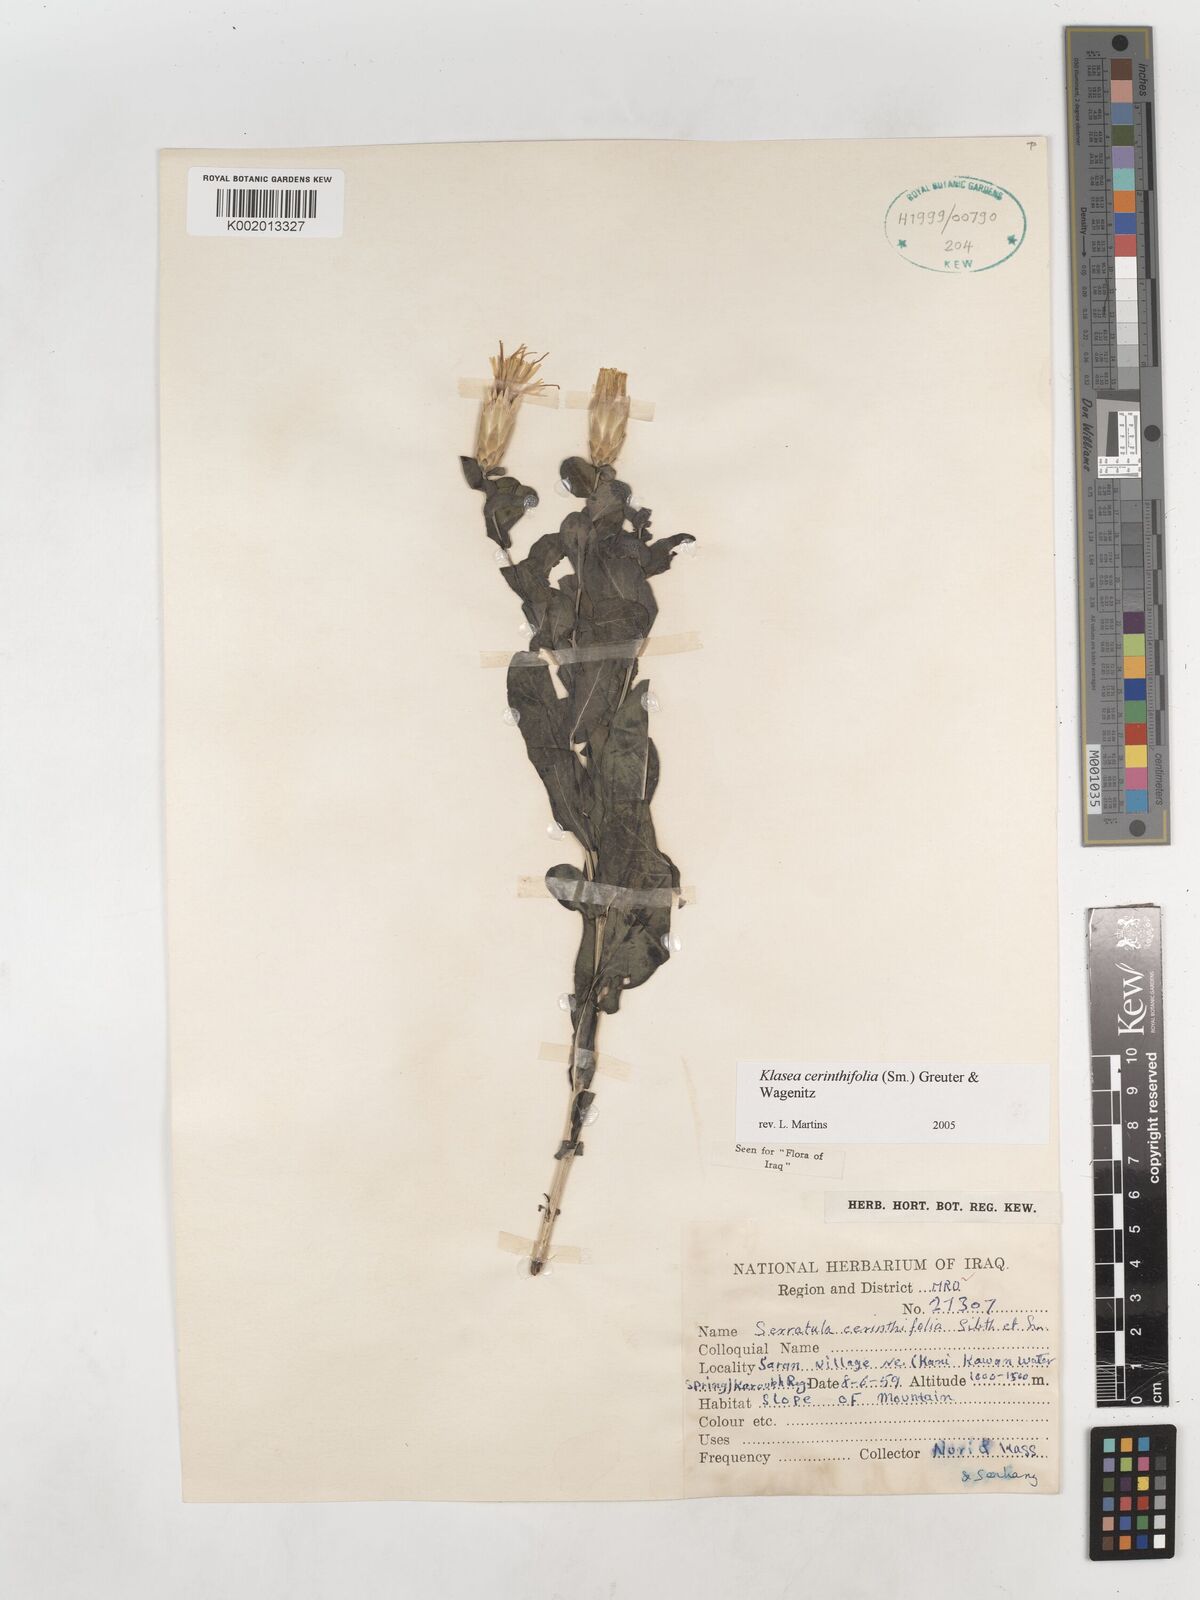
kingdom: Plantae
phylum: Tracheophyta
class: Magnoliopsida
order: Asterales
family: Asteraceae
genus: Klasea
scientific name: Klasea cerinthifolia
